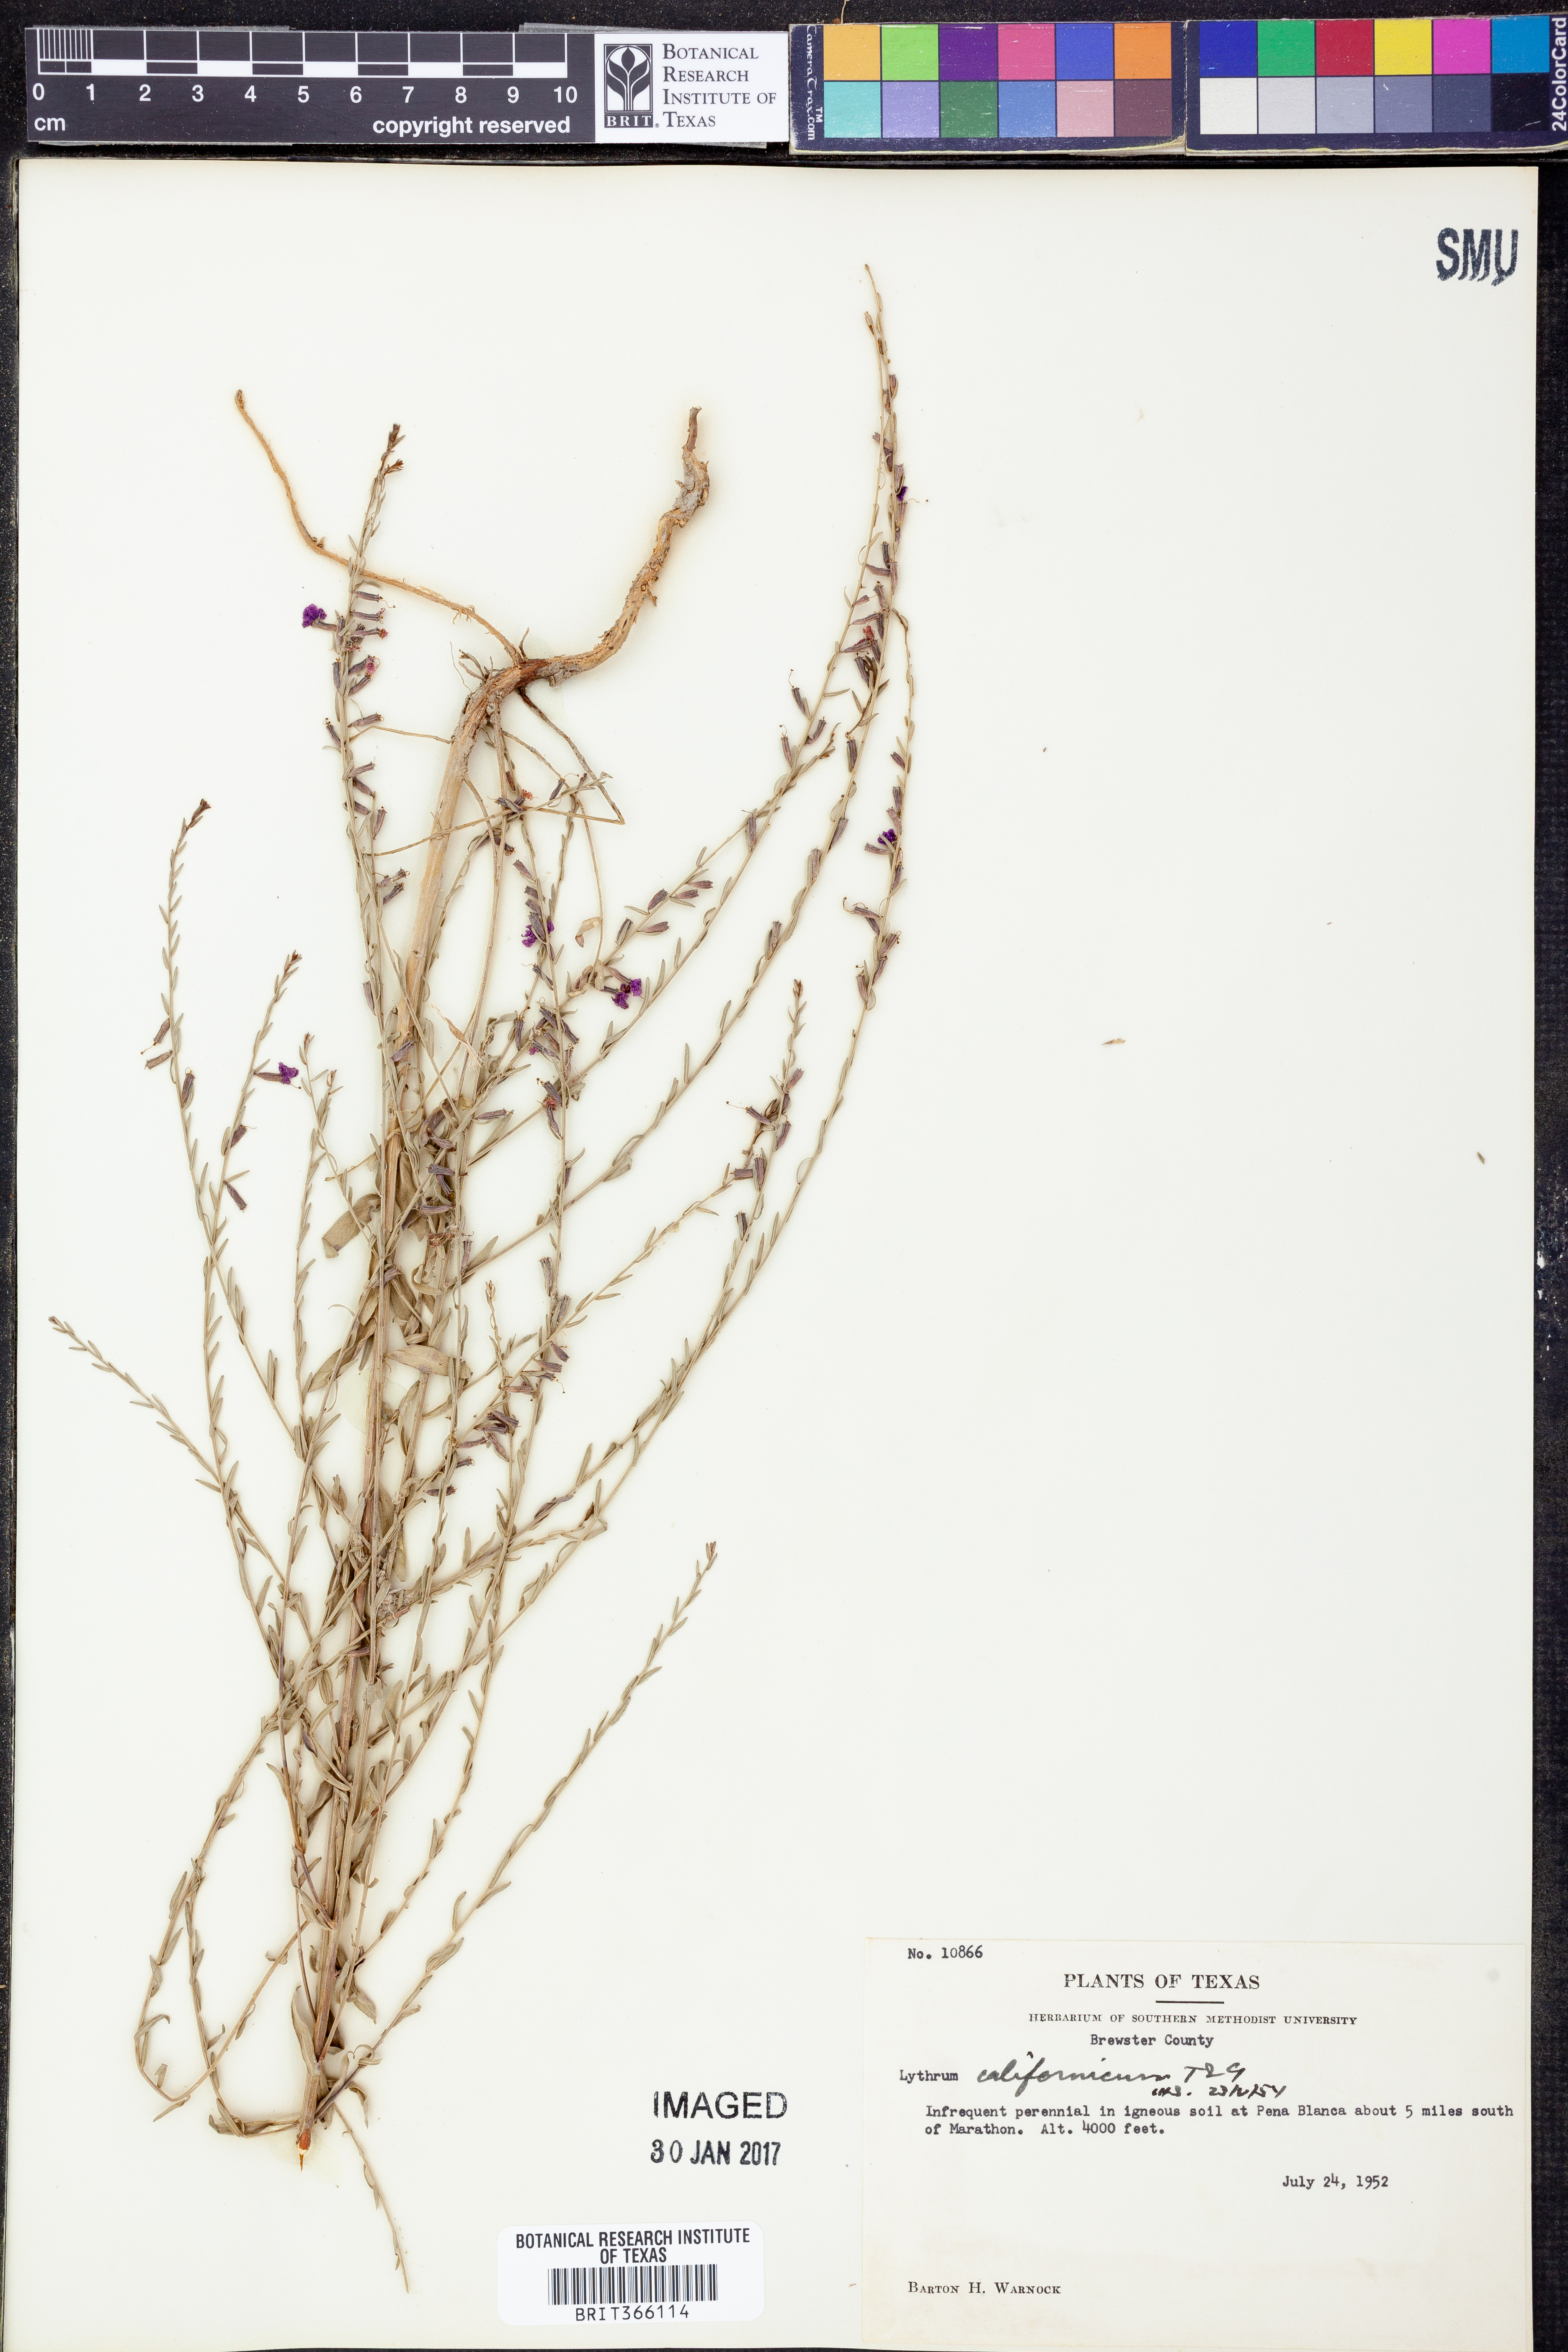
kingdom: Plantae
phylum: Tracheophyta
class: Magnoliopsida
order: Myrtales
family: Lythraceae
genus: Lythrum
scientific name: Lythrum californicum
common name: California loosestrife
